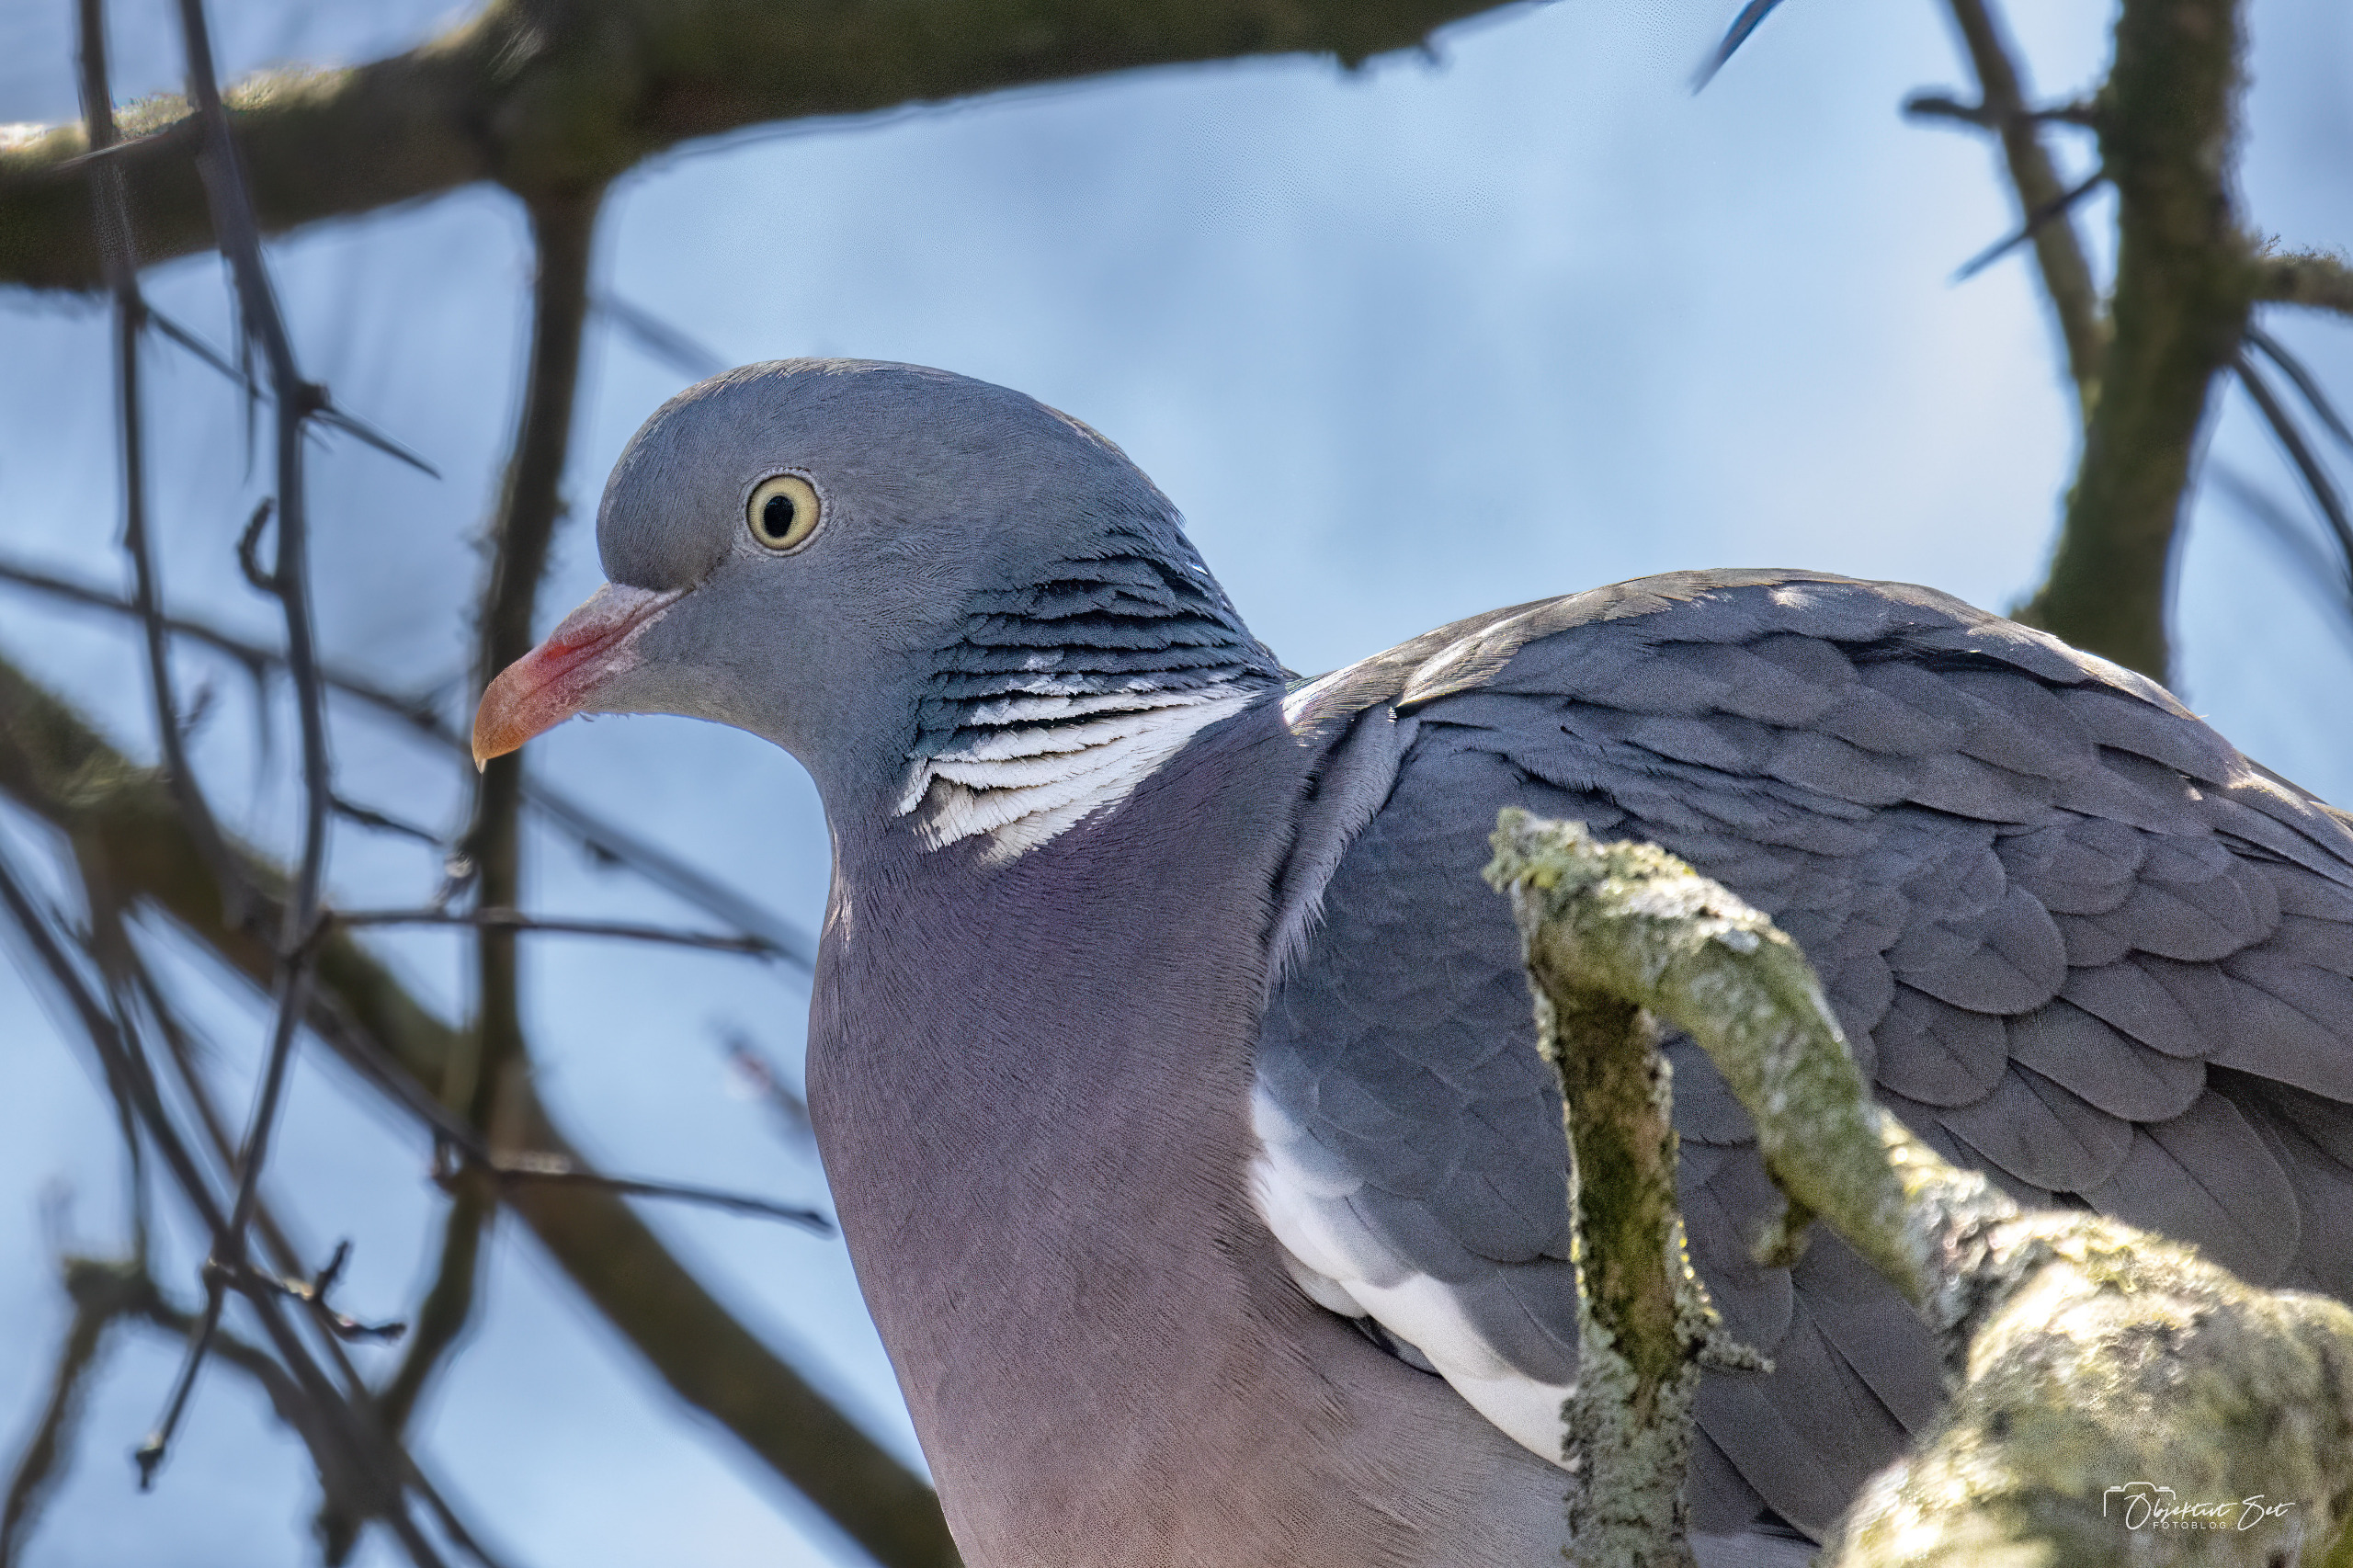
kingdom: Animalia
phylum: Chordata
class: Aves
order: Columbiformes
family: Columbidae
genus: Columba
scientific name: Columba palumbus
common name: Ringdue
